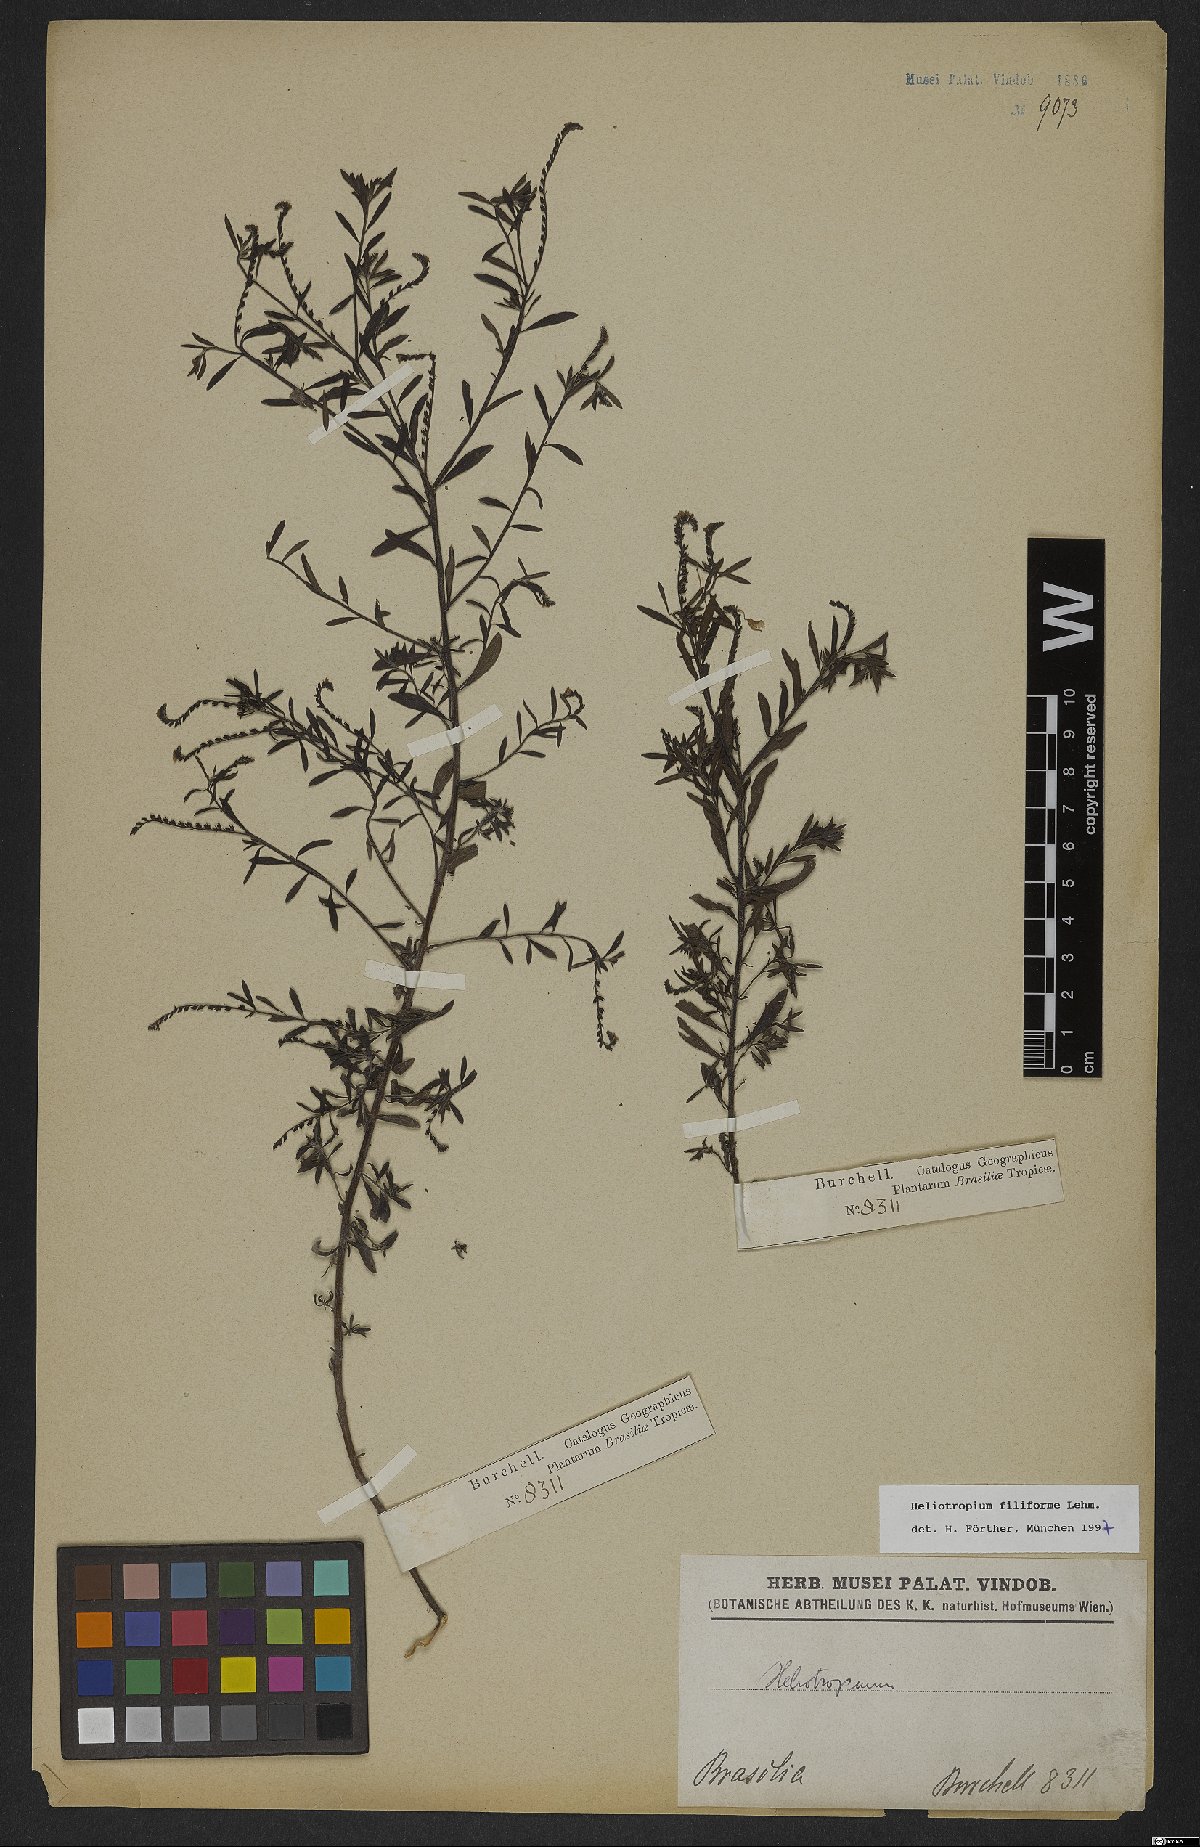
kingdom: Plantae
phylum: Tracheophyta
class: Magnoliopsida
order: Boraginales
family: Heliotropiaceae
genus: Euploca
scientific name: Euploca filiformis
